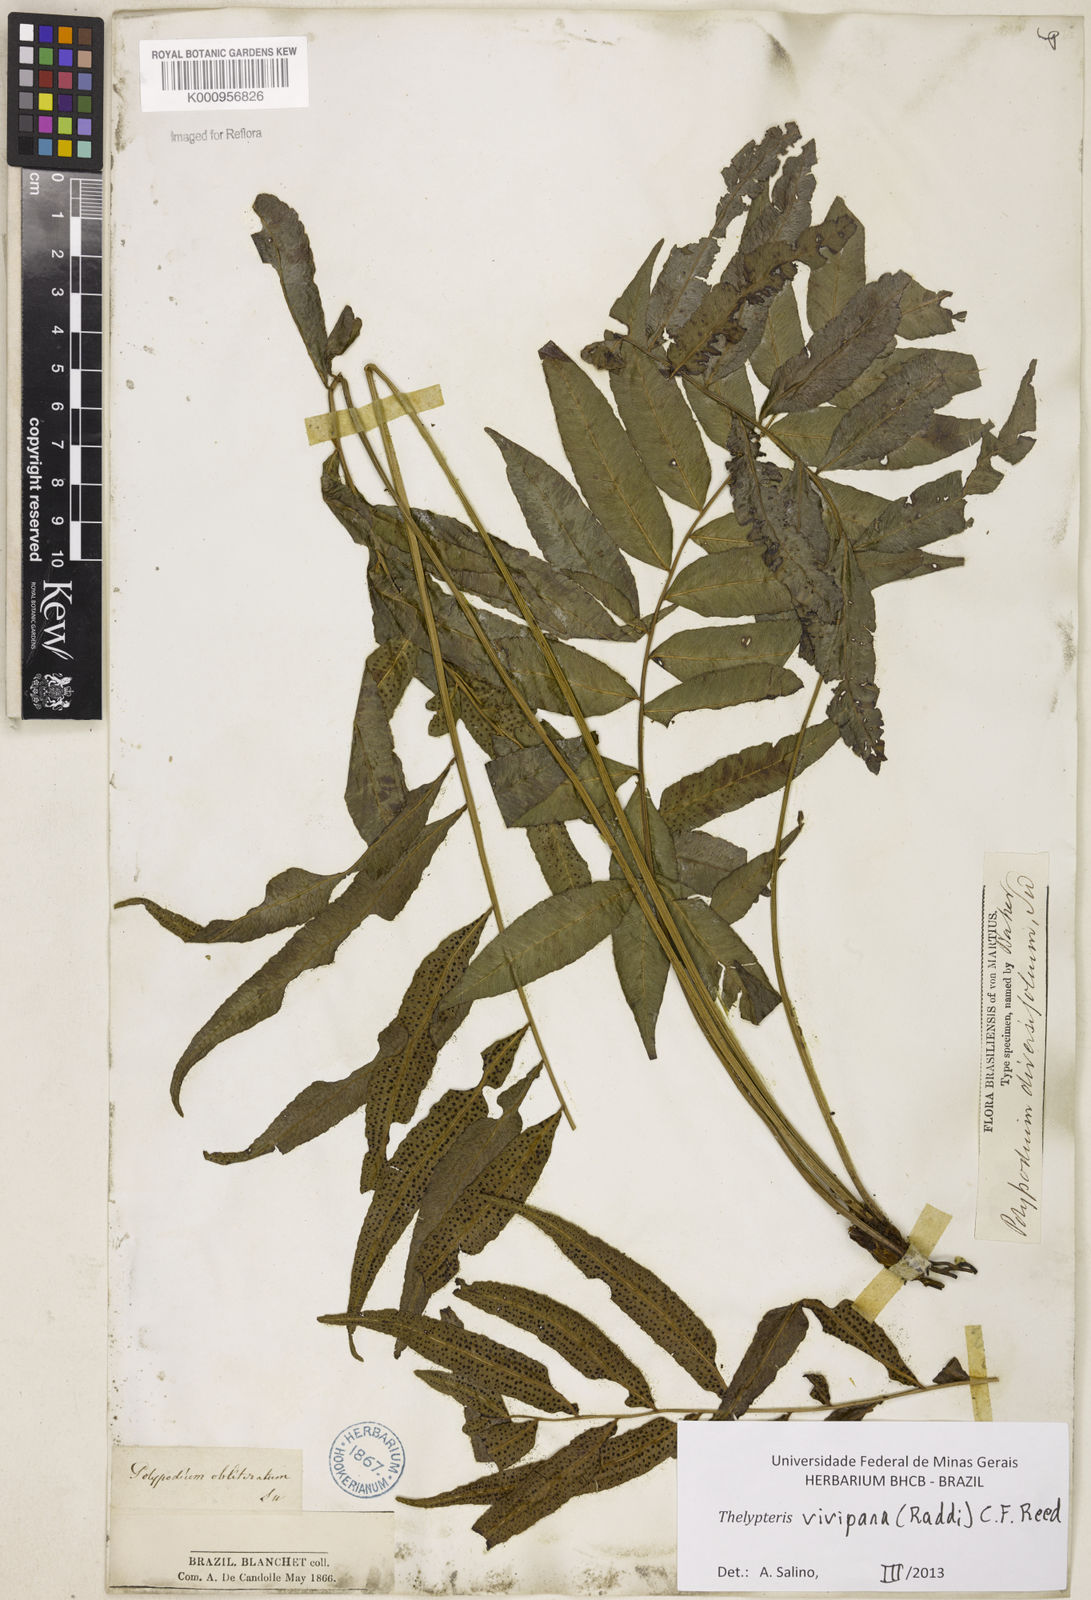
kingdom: Plantae
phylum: Tracheophyta
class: Polypodiopsida
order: Polypodiales
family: Thelypteridaceae
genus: Goniopteris
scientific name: Goniopteris vivipara
